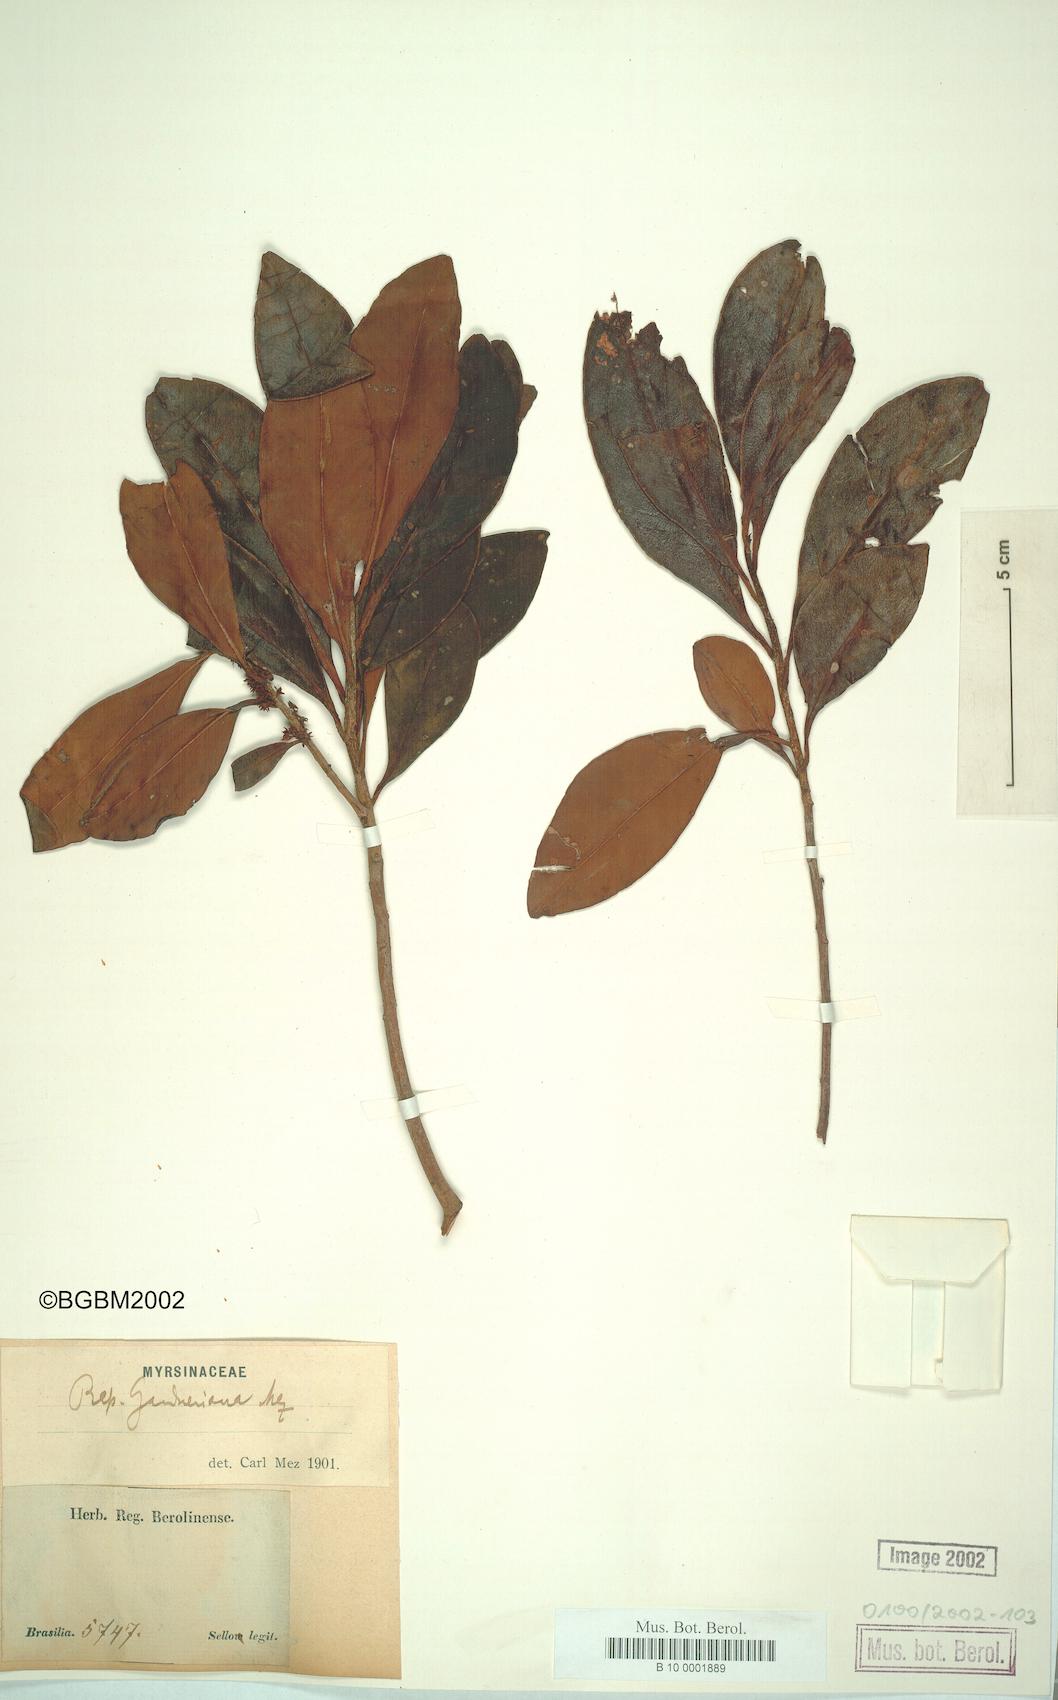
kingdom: Plantae
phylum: Tracheophyta
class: Magnoliopsida
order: Ericales
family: Primulaceae
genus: Myrsine
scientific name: Myrsine gardneriana
